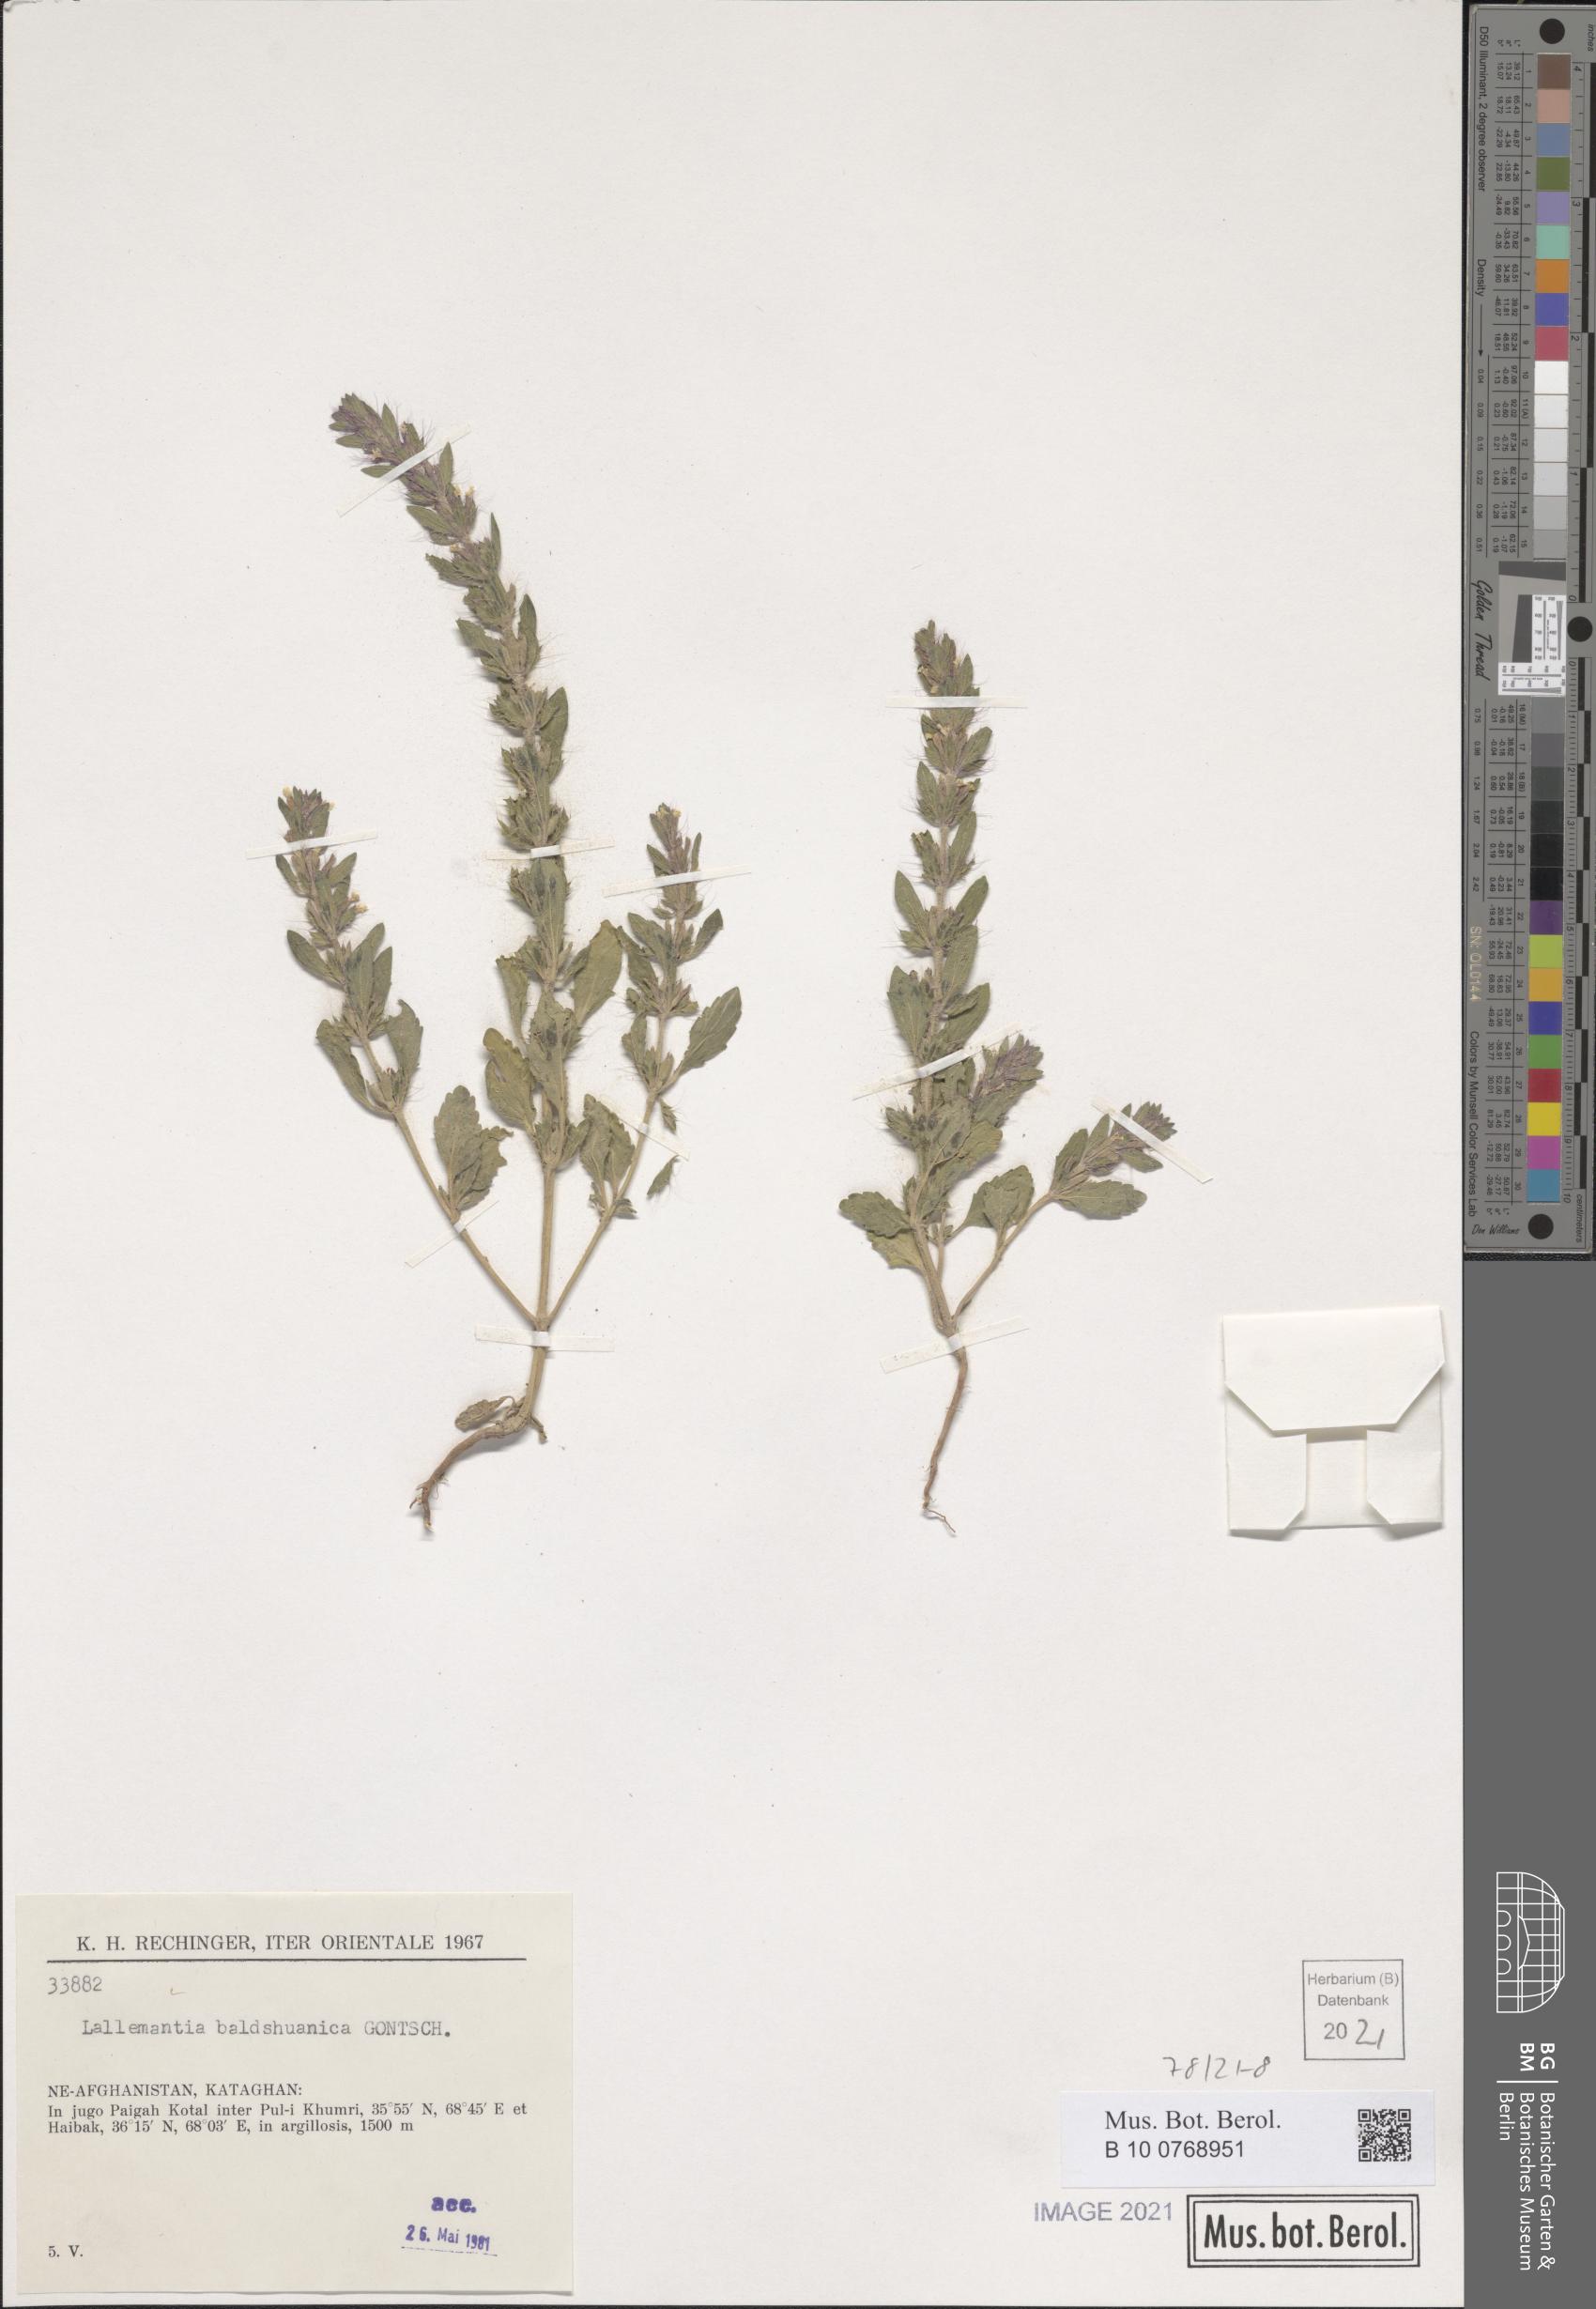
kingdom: Plantae
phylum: Tracheophyta
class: Magnoliopsida
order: Lamiales
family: Lamiaceae
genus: Lallemantia
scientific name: Lallemantia baldshuanica
